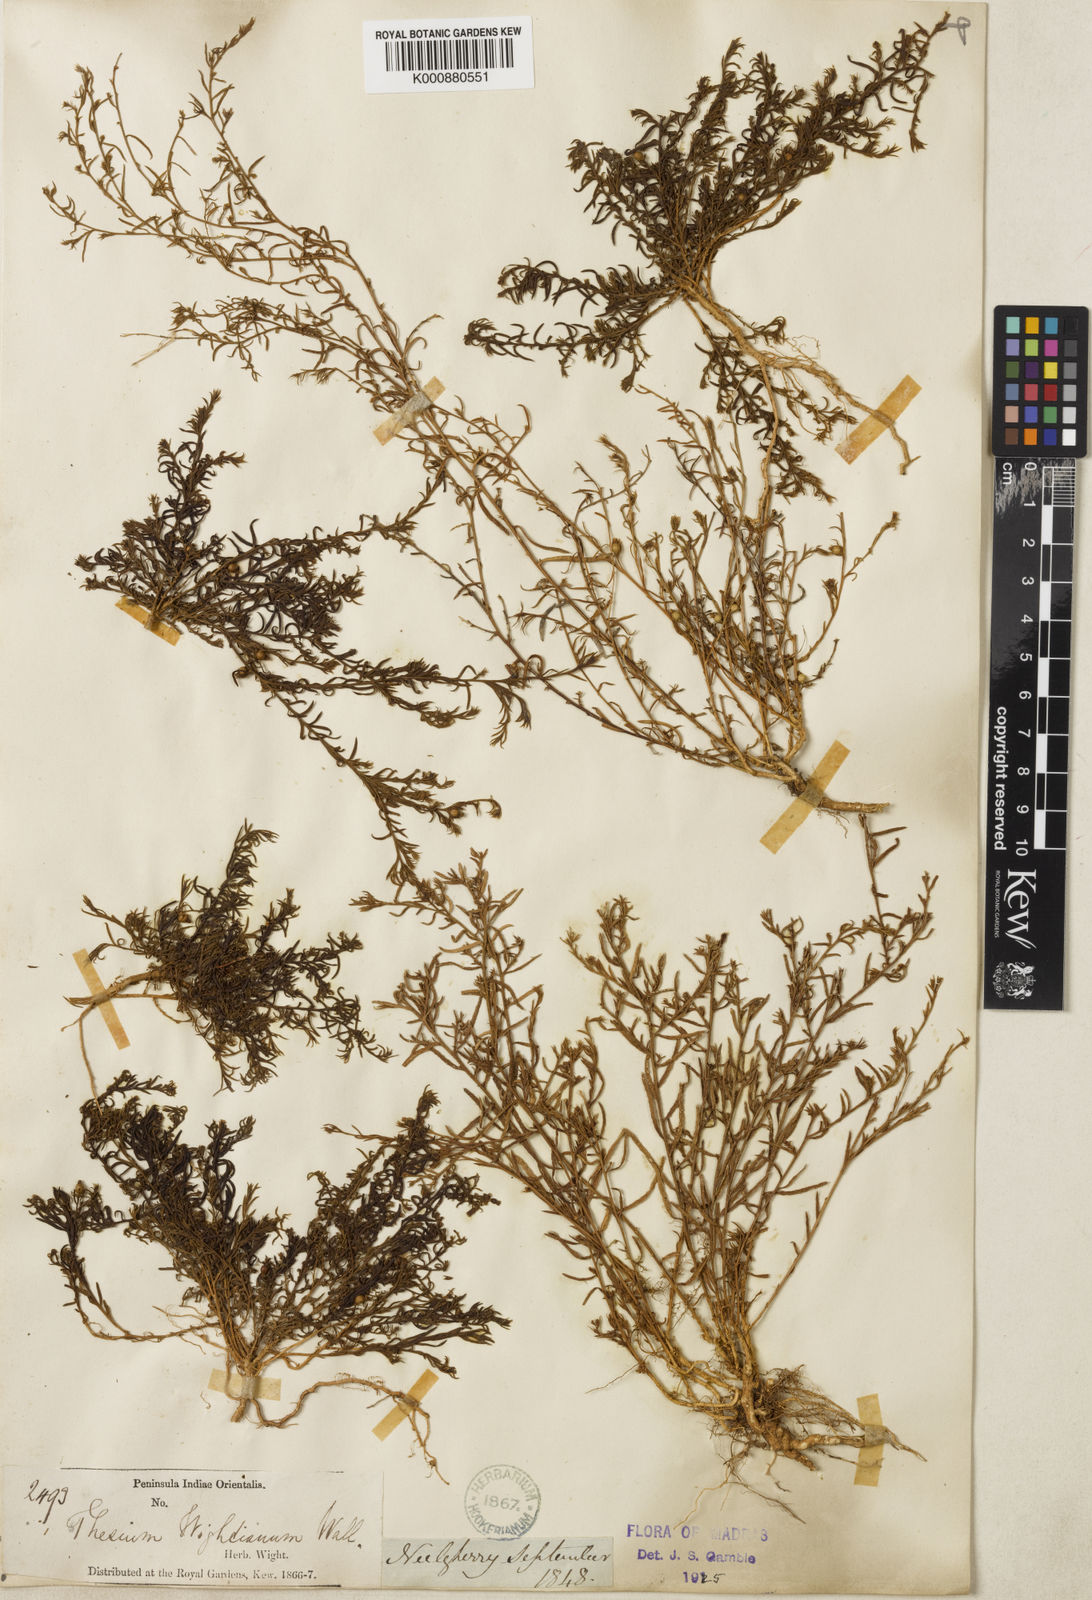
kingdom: Plantae
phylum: Tracheophyta
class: Magnoliopsida
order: Santalales
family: Thesiaceae
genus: Thesium
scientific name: Thesium
